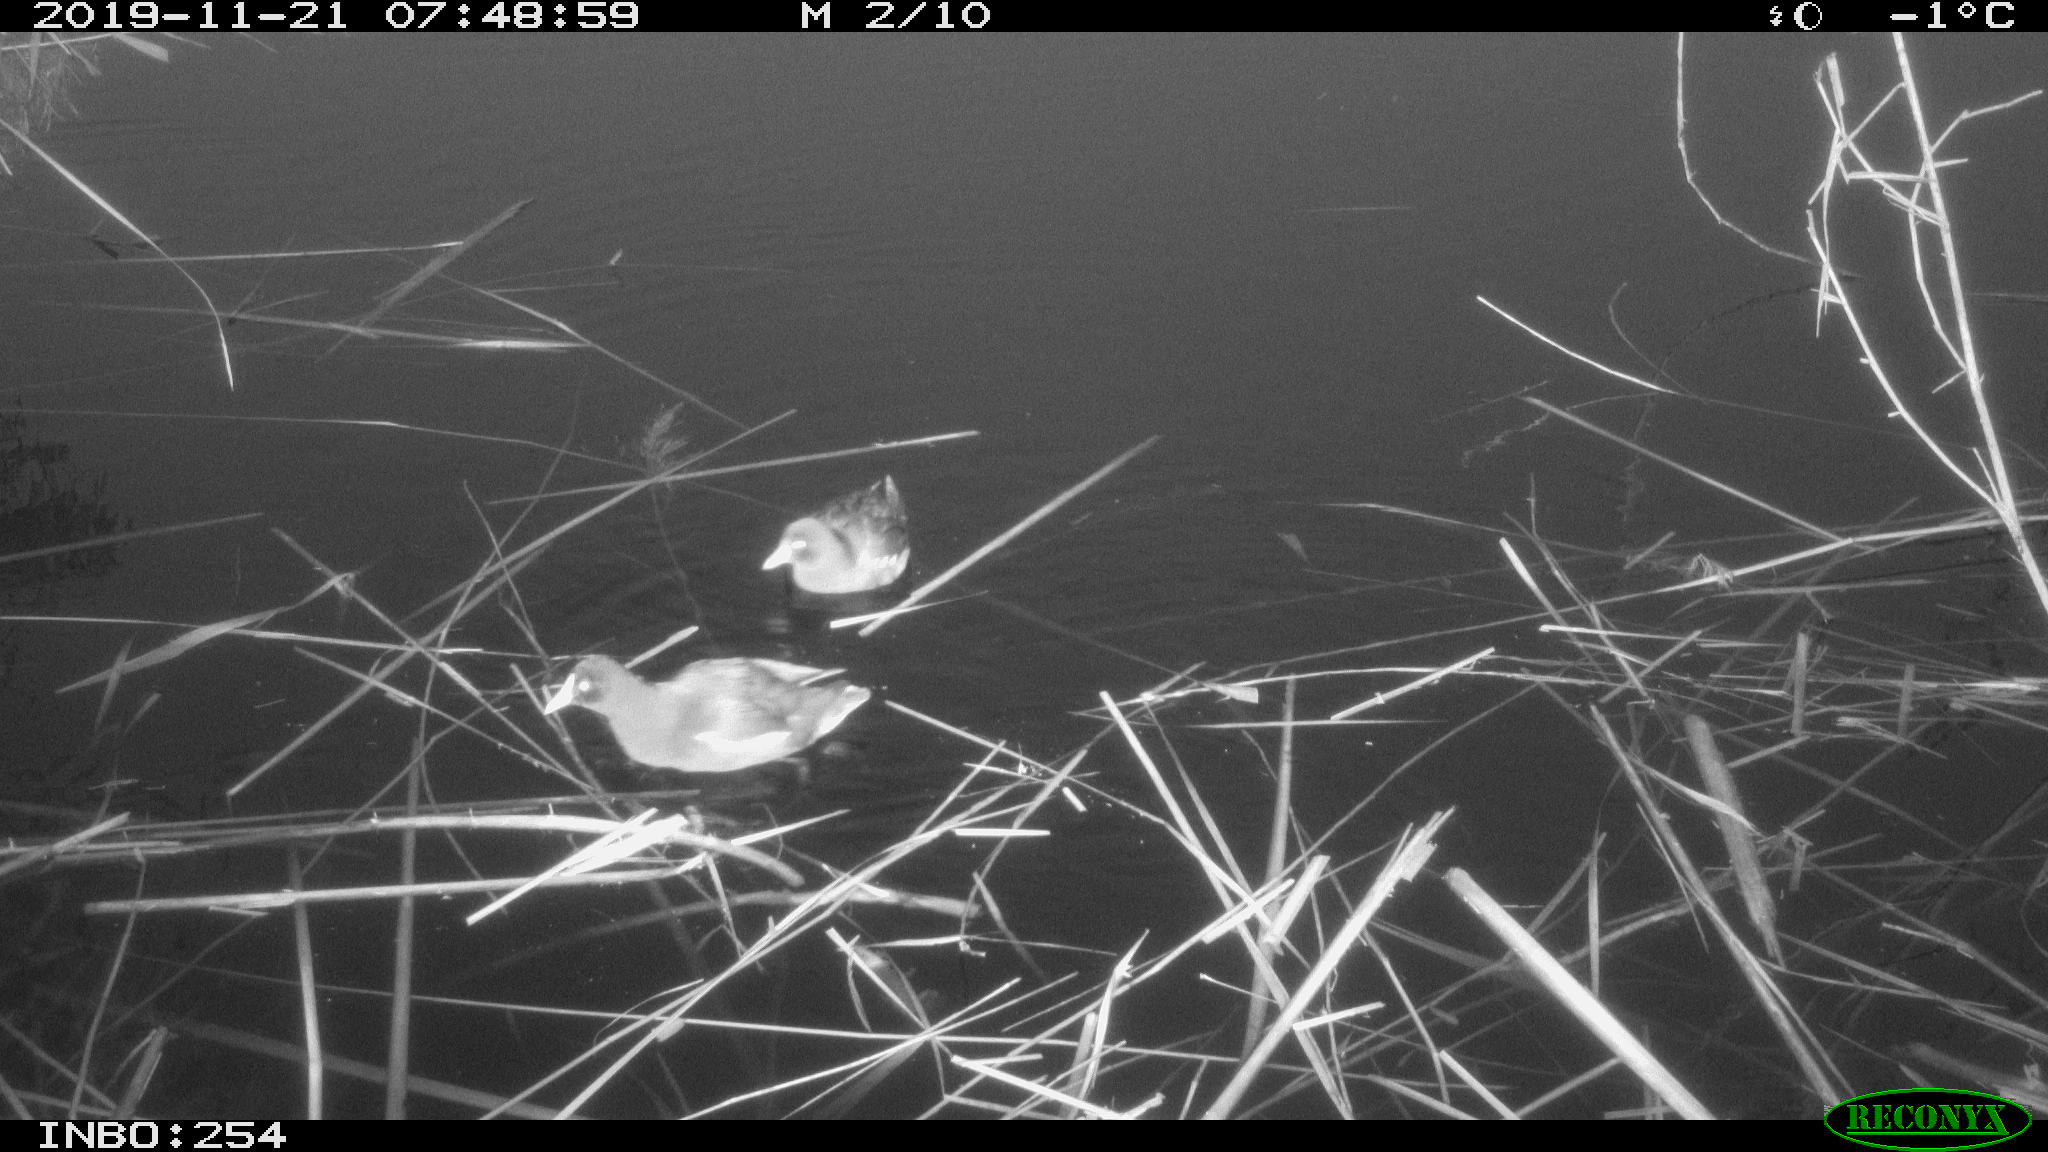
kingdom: Animalia
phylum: Chordata
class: Aves
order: Gruiformes
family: Rallidae
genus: Gallinula
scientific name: Gallinula chloropus
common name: Common moorhen
